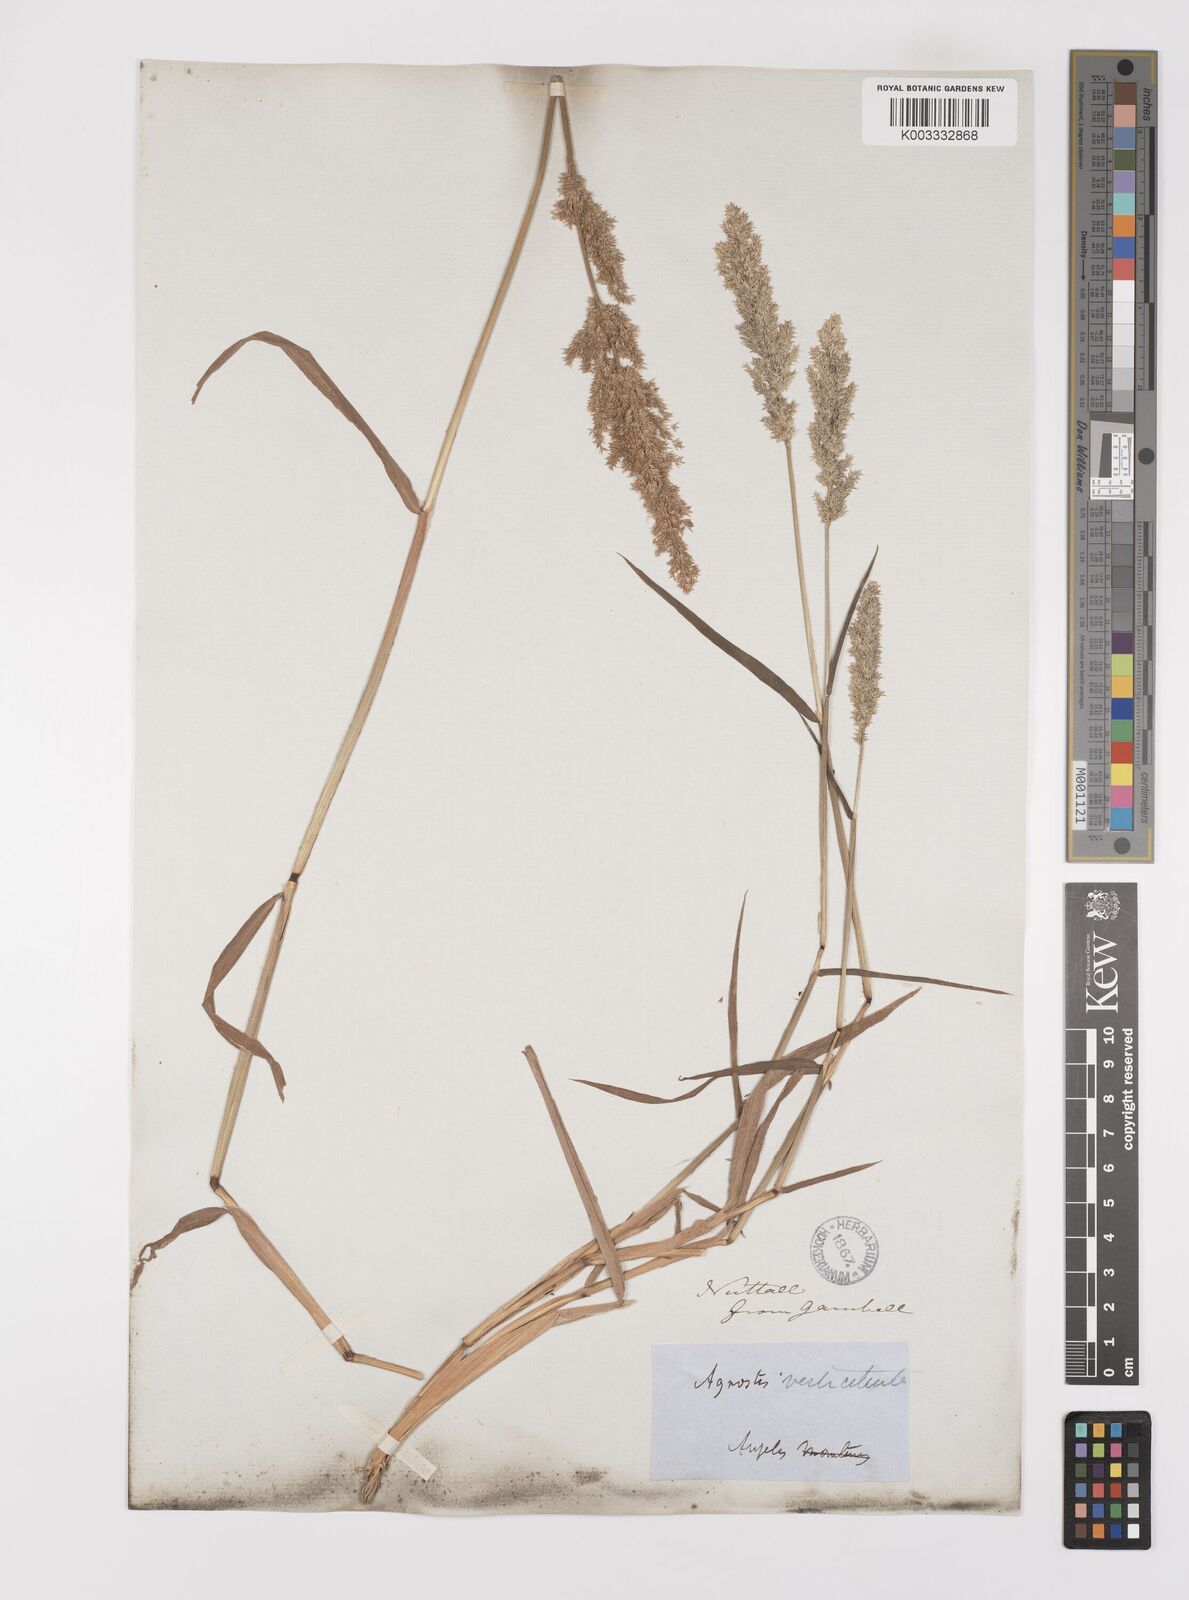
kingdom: Plantae
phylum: Tracheophyta
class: Liliopsida
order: Poales
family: Poaceae
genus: Polypogon
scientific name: Polypogon viridis
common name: Water bent
